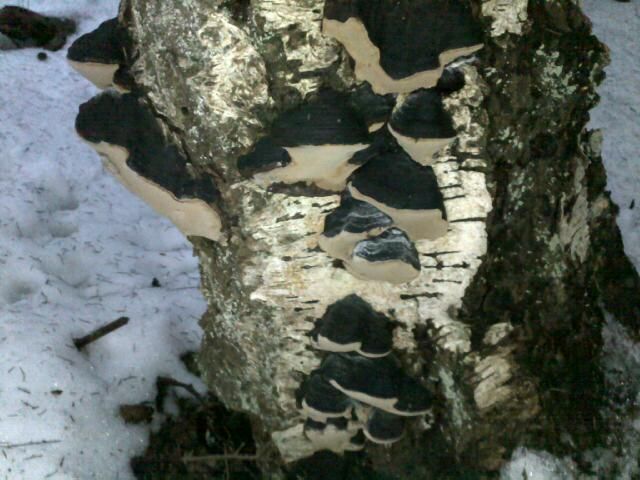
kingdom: Fungi
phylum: Basidiomycota
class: Agaricomycetes
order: Hymenochaetales
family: Hymenochaetaceae
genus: Phellinus
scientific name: Phellinus lundellii
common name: birke-ildporesvamp
